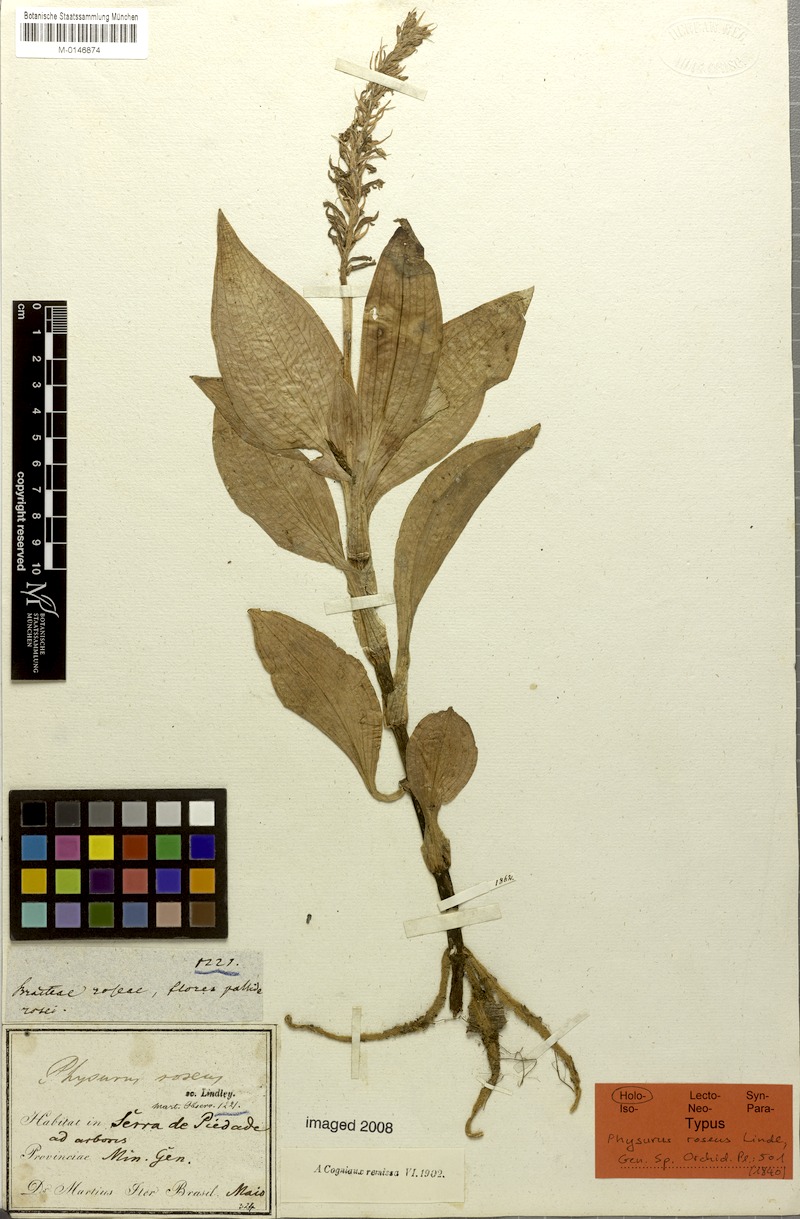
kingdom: Plantae
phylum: Tracheophyta
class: Liliopsida
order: Asparagales
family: Orchidaceae
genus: Aspidogyne
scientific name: Aspidogyne rosea
